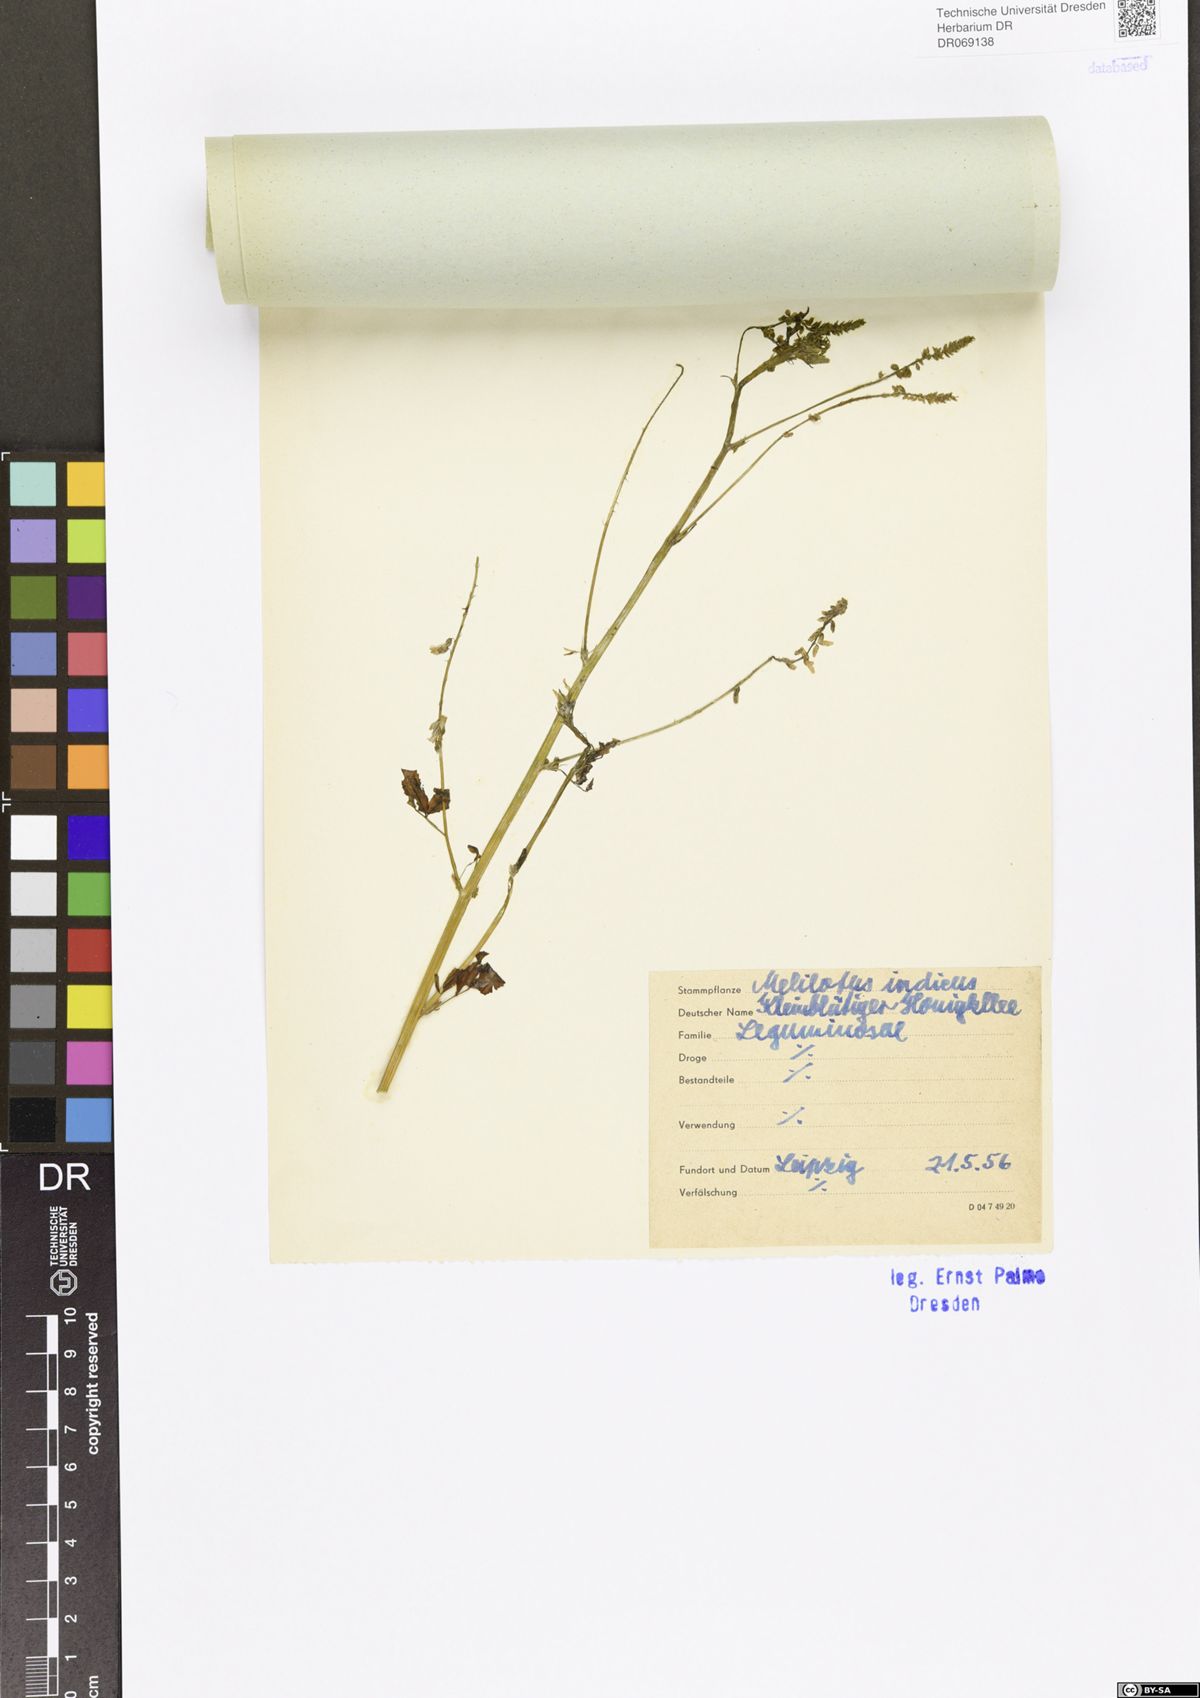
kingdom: Plantae
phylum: Tracheophyta
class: Magnoliopsida
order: Fabales
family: Fabaceae
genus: Melilotus
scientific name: Melilotus indicus
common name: Small melilot
